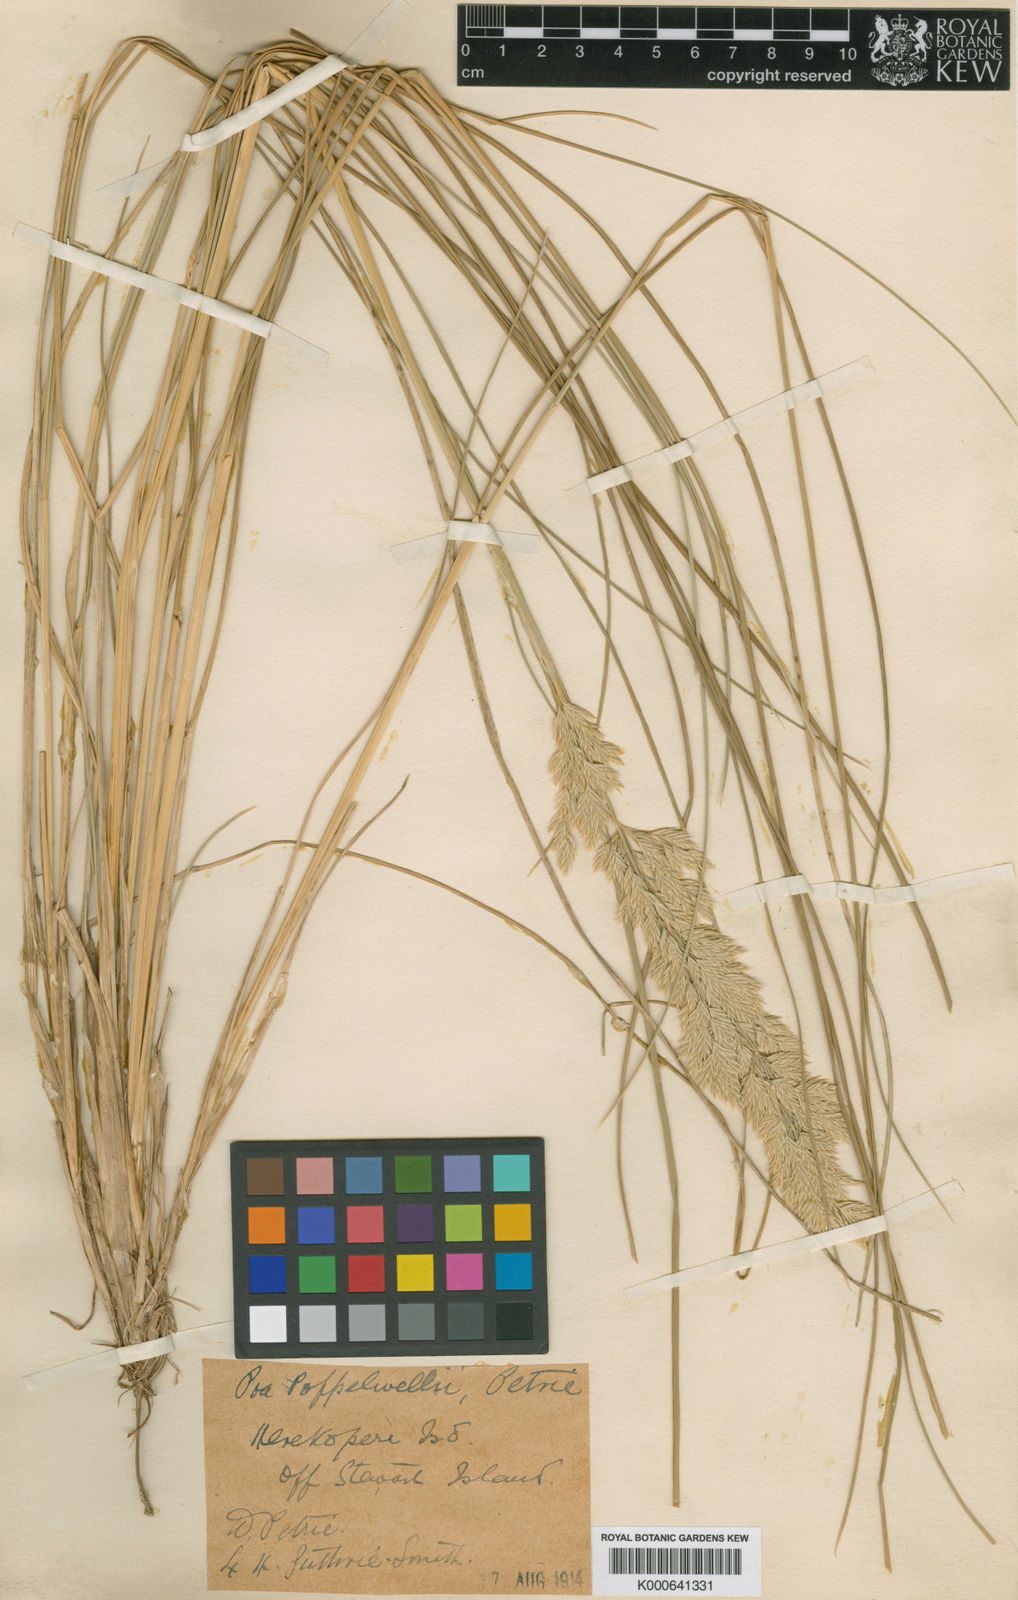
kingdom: Plantae
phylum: Tracheophyta
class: Liliopsida
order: Poales
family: Poaceae
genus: Poa
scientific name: Poa litorosa
